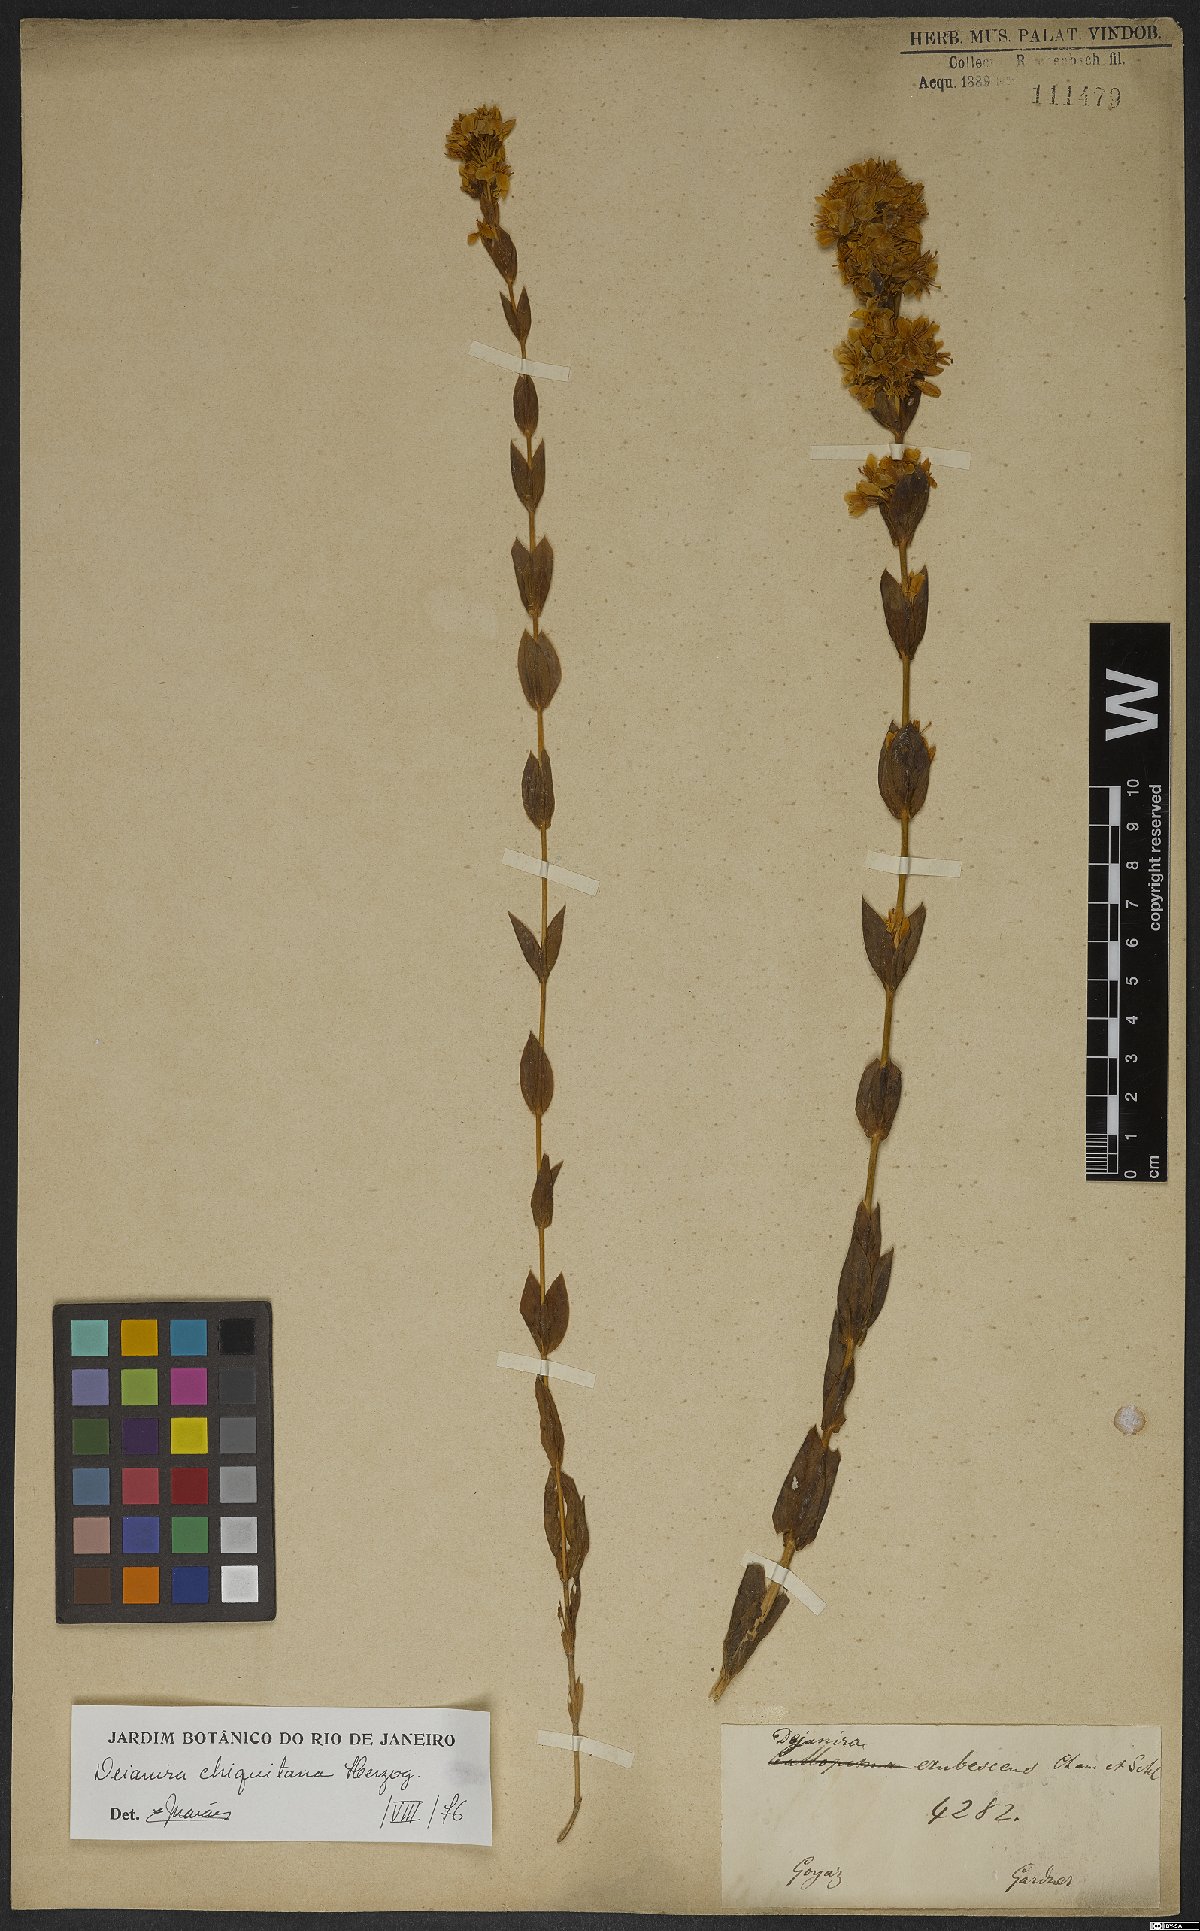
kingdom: Plantae
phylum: Tracheophyta
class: Magnoliopsida
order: Gentianales
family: Gentianaceae
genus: Deianira
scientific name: Deianira chiquitana
